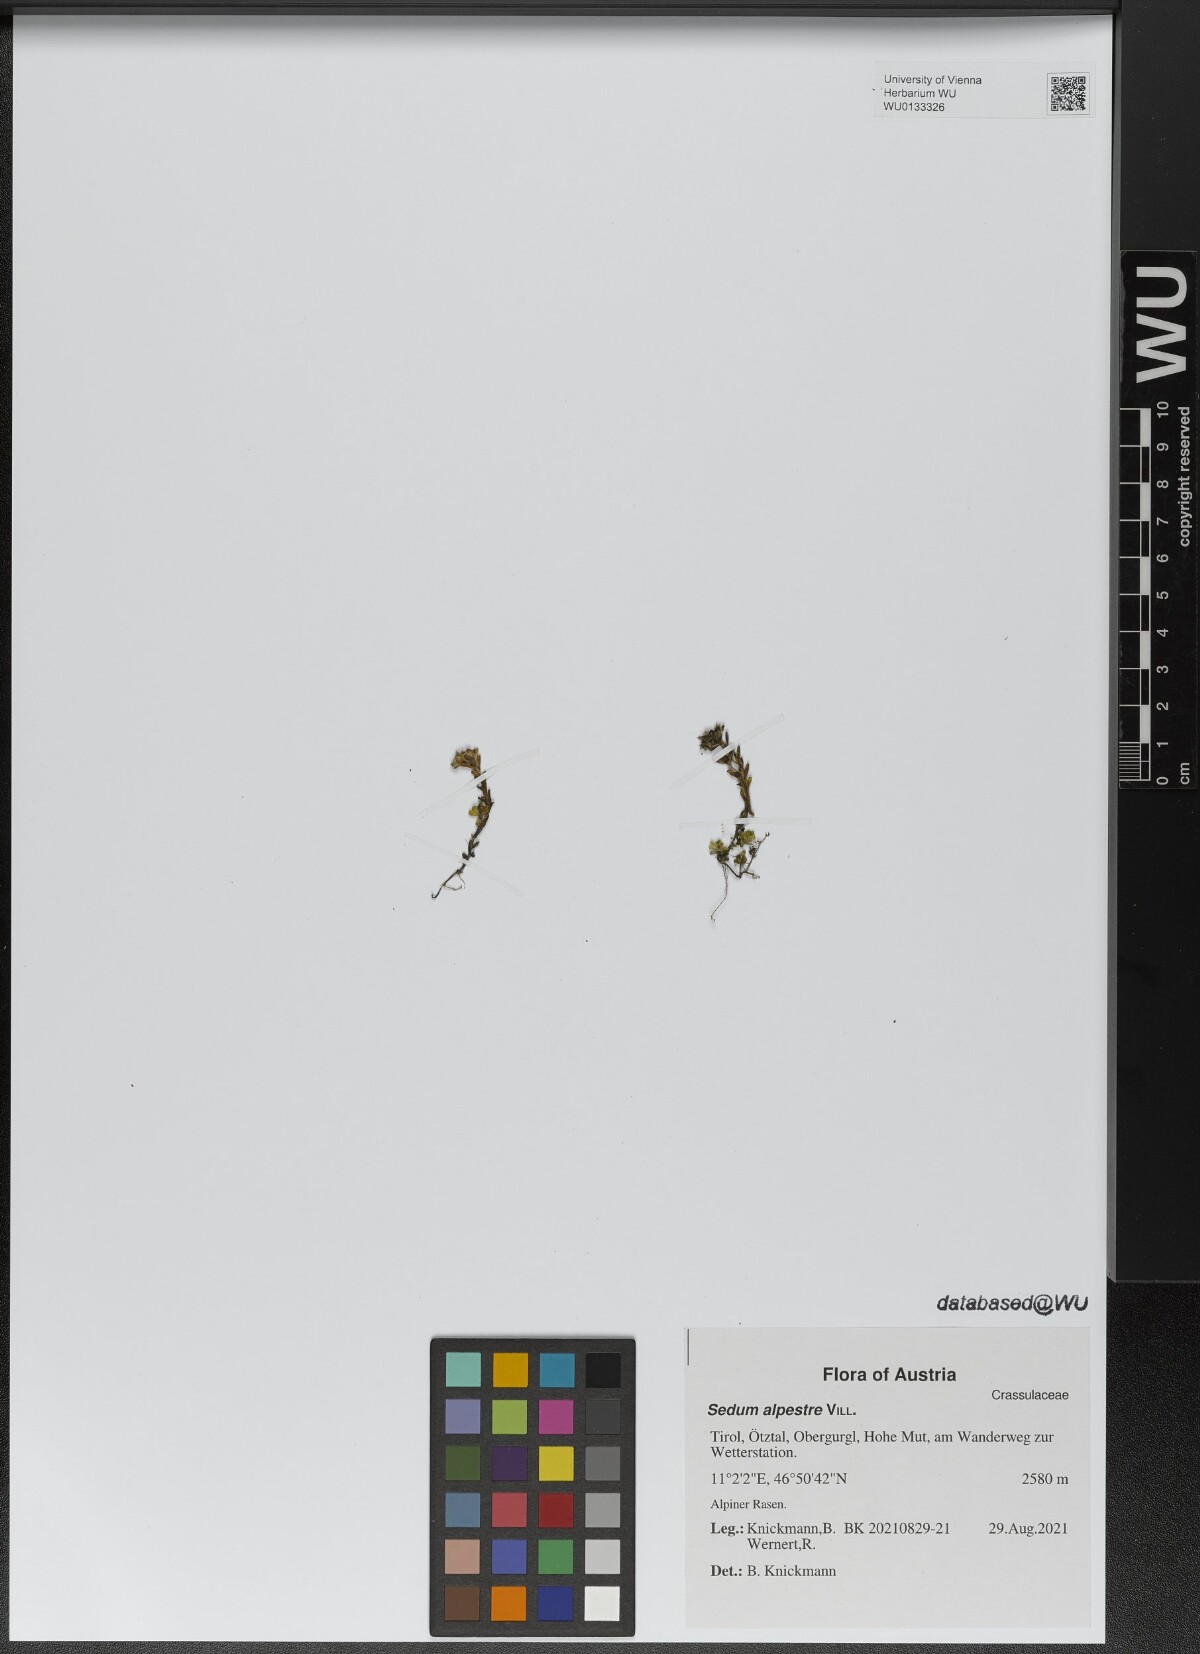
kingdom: Plantae
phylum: Tracheophyta
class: Magnoliopsida
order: Saxifragales
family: Crassulaceae
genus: Sedum
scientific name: Sedum alpestre
